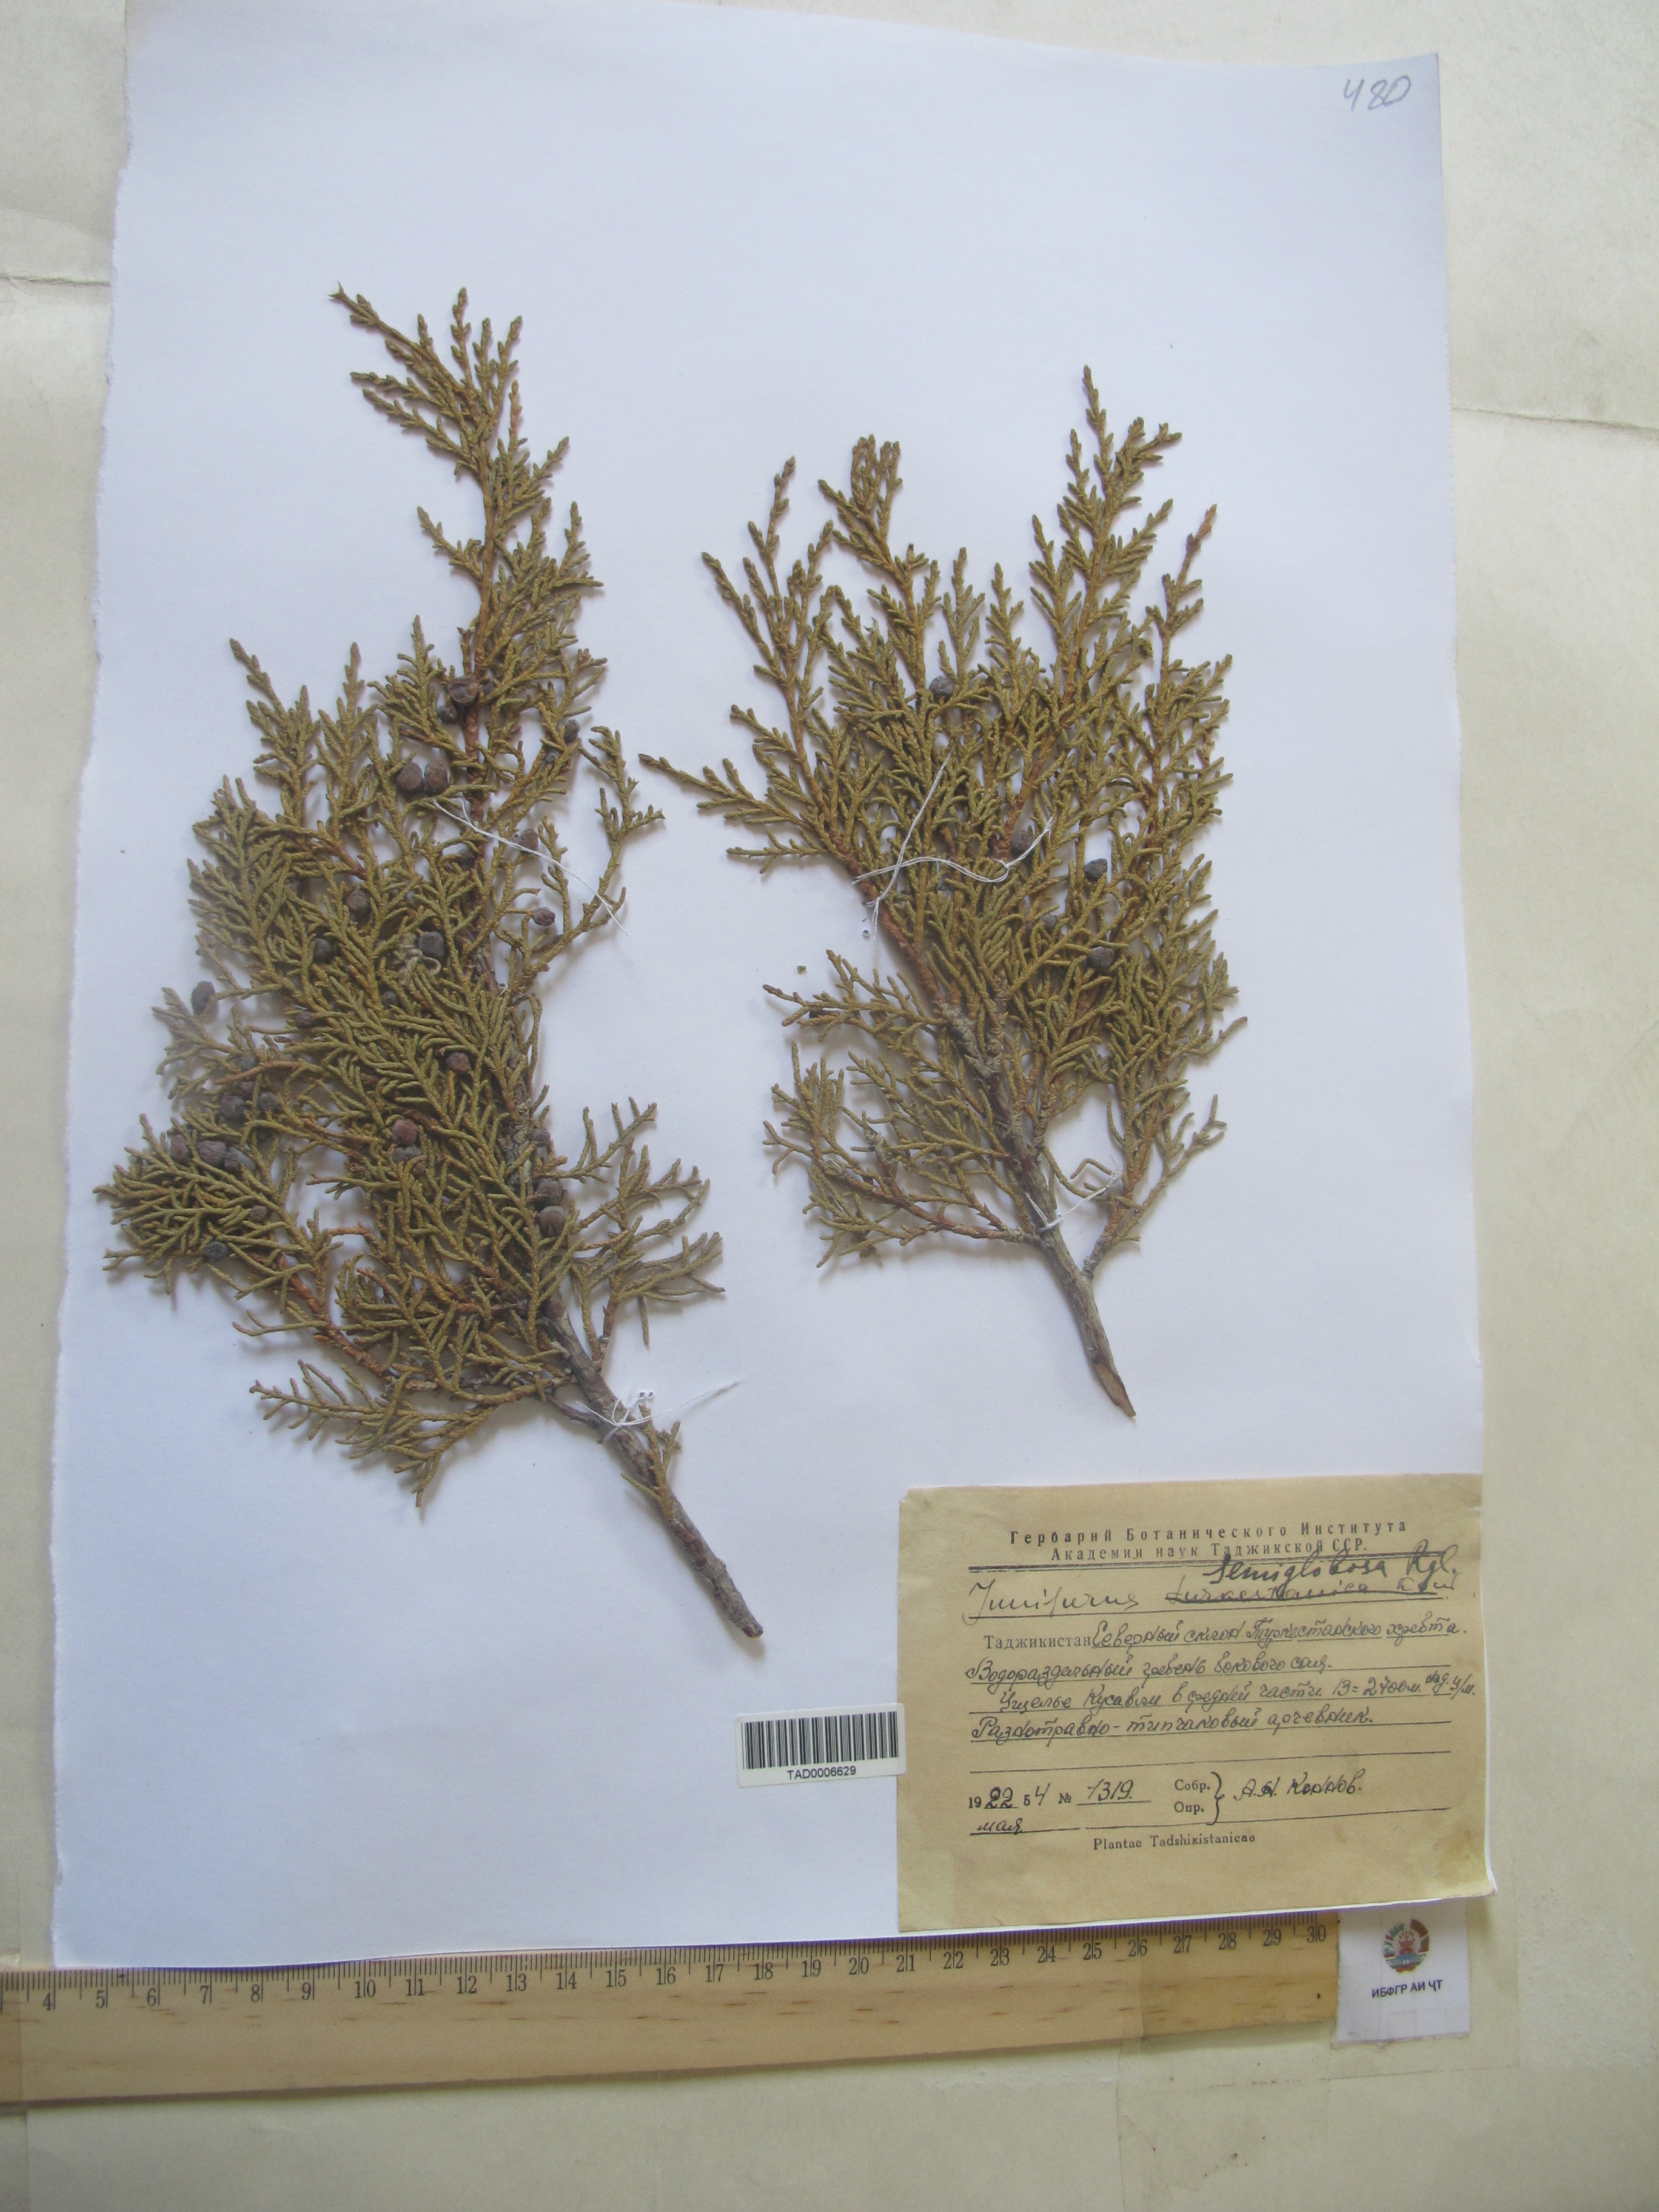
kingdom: Plantae
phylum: Tracheophyta
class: Pinopsida
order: Pinales
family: Cupressaceae
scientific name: Cupressaceae
